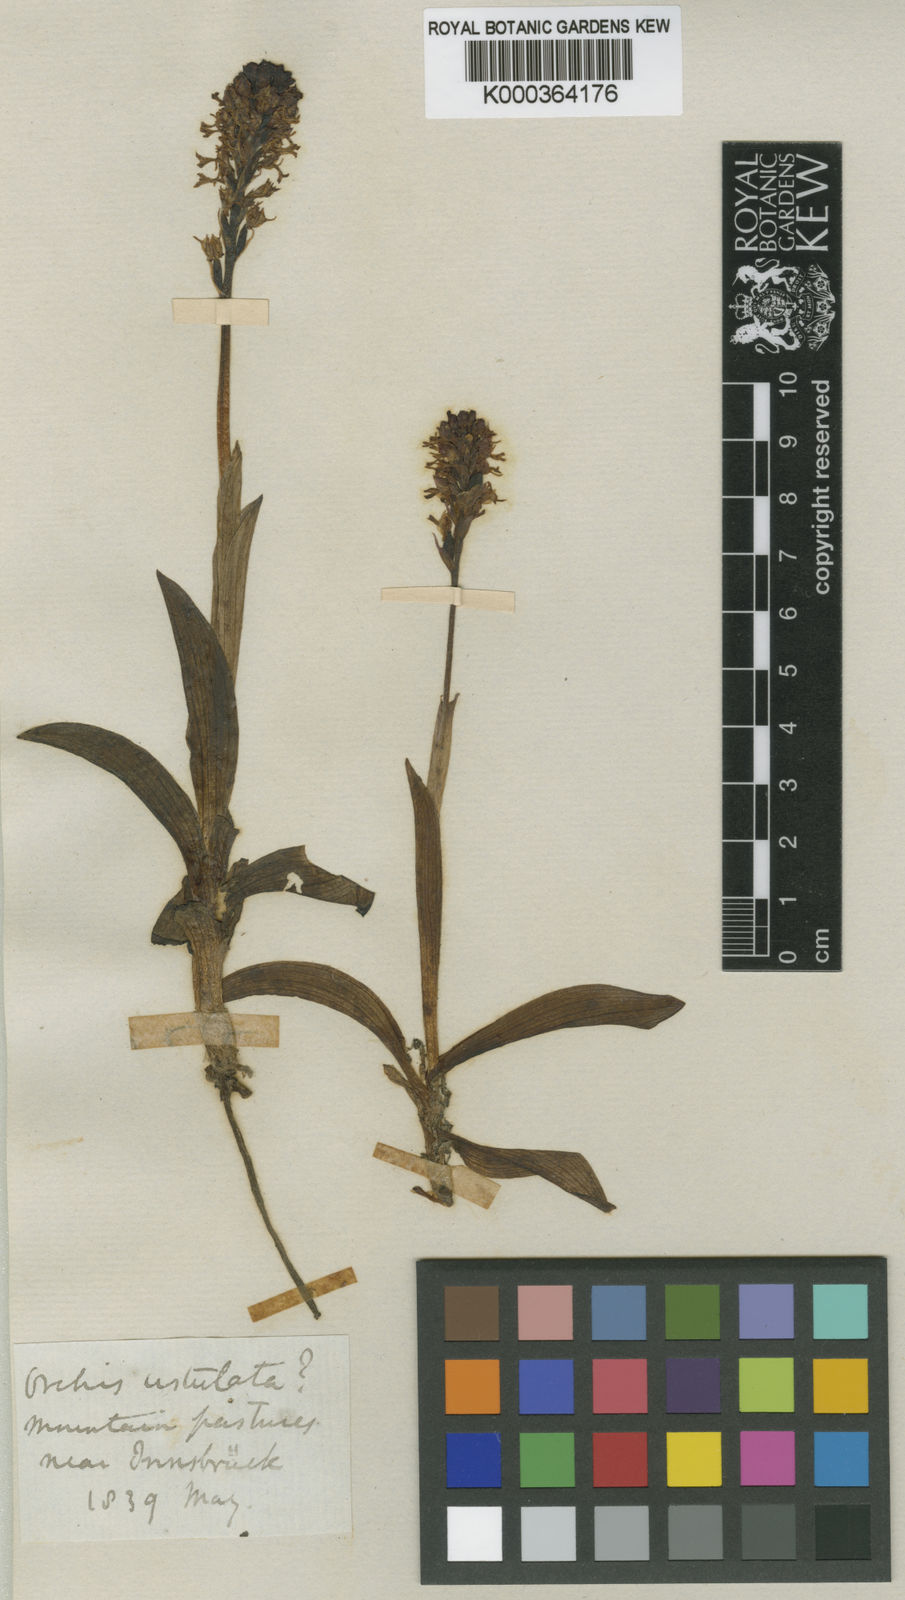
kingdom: Plantae
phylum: Tracheophyta
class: Liliopsida
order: Asparagales
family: Orchidaceae
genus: Neotinea
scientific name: Neotinea ustulata
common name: Burnt orchid
